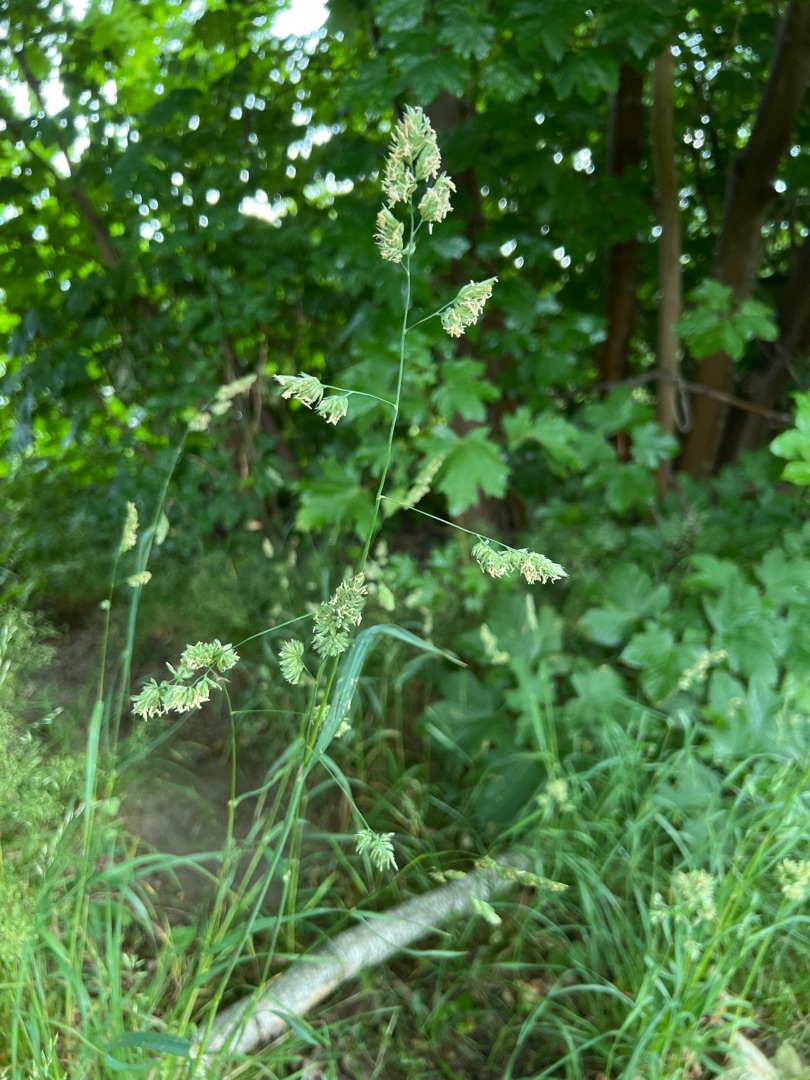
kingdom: Plantae
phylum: Tracheophyta
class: Liliopsida
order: Poales
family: Poaceae
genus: Dactylis
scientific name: Dactylis glomerata
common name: Almindelig hundegræs
